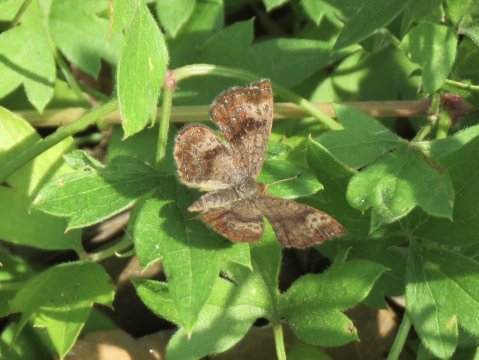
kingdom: Animalia
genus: Calephelis
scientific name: Calephelis nemesis
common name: Fatal Metalmark
